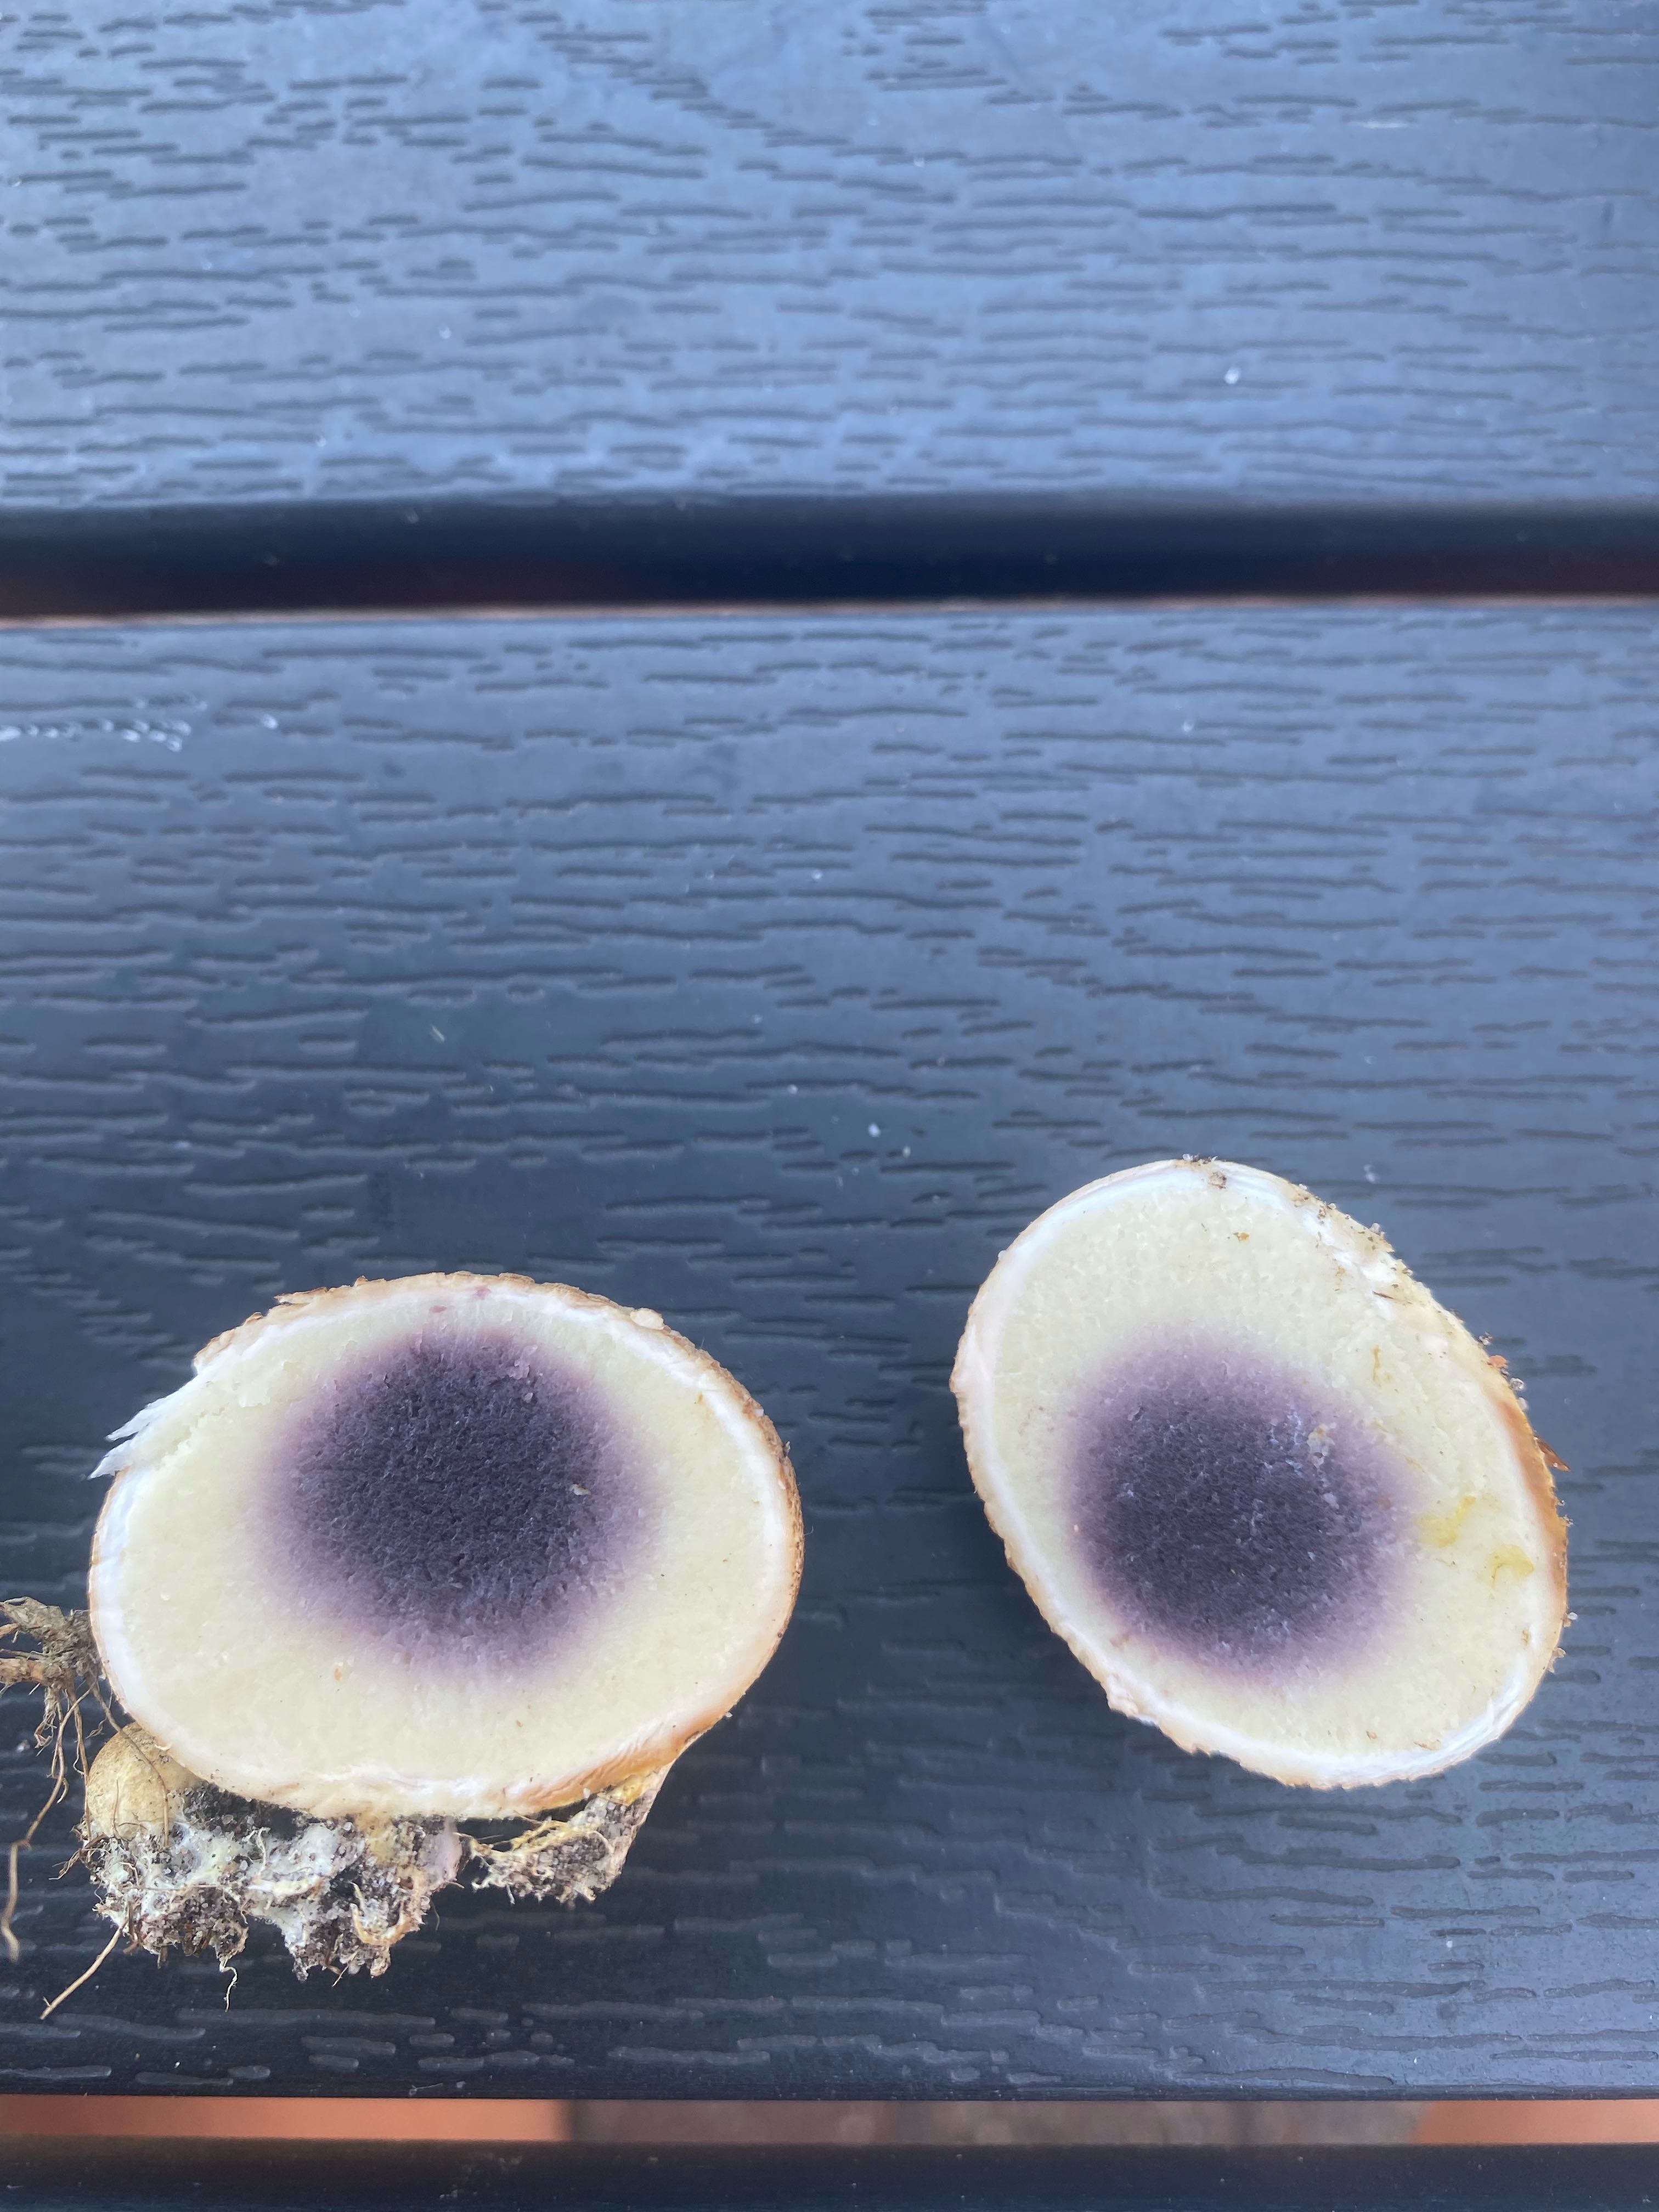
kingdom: Fungi
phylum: Basidiomycota
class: Agaricomycetes
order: Boletales
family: Sclerodermataceae
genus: Scleroderma
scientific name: Scleroderma citrinum
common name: almindelig bruskbold
